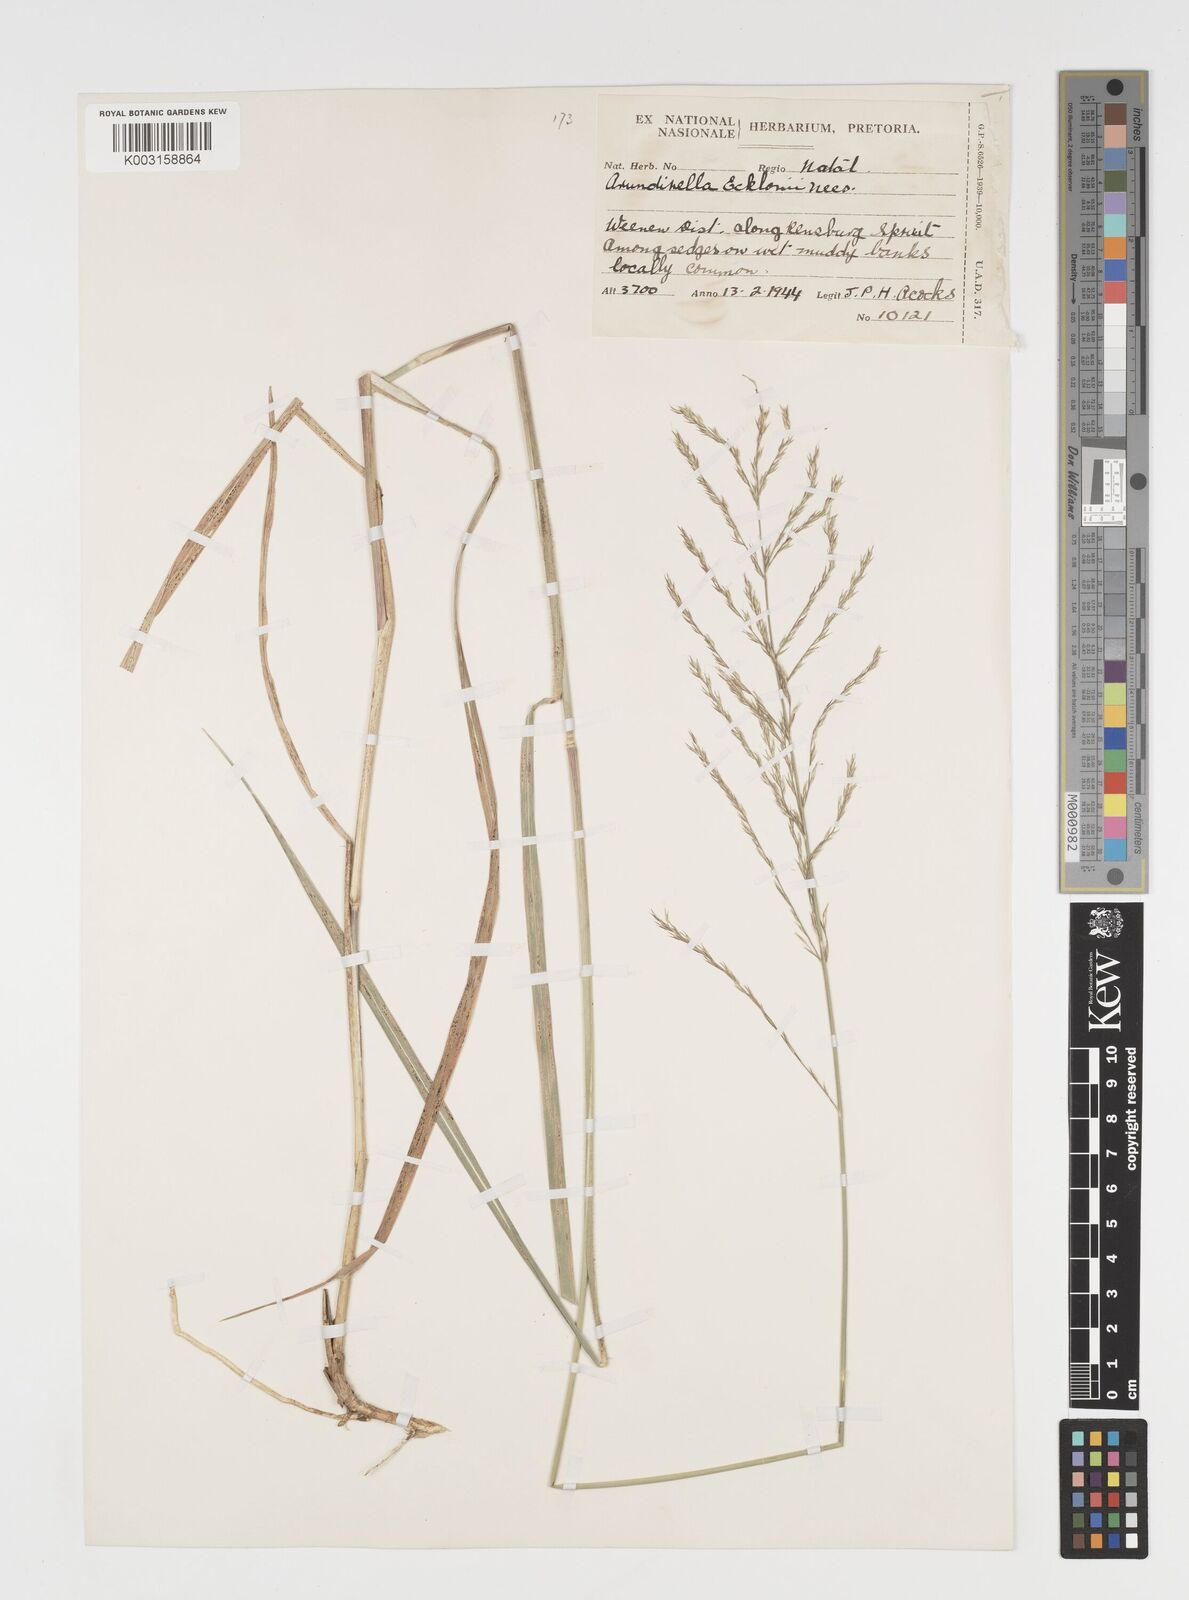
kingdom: Plantae
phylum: Tracheophyta
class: Liliopsida
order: Poales
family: Poaceae
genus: Arundinella
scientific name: Arundinella nepalensis
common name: Reed grass
